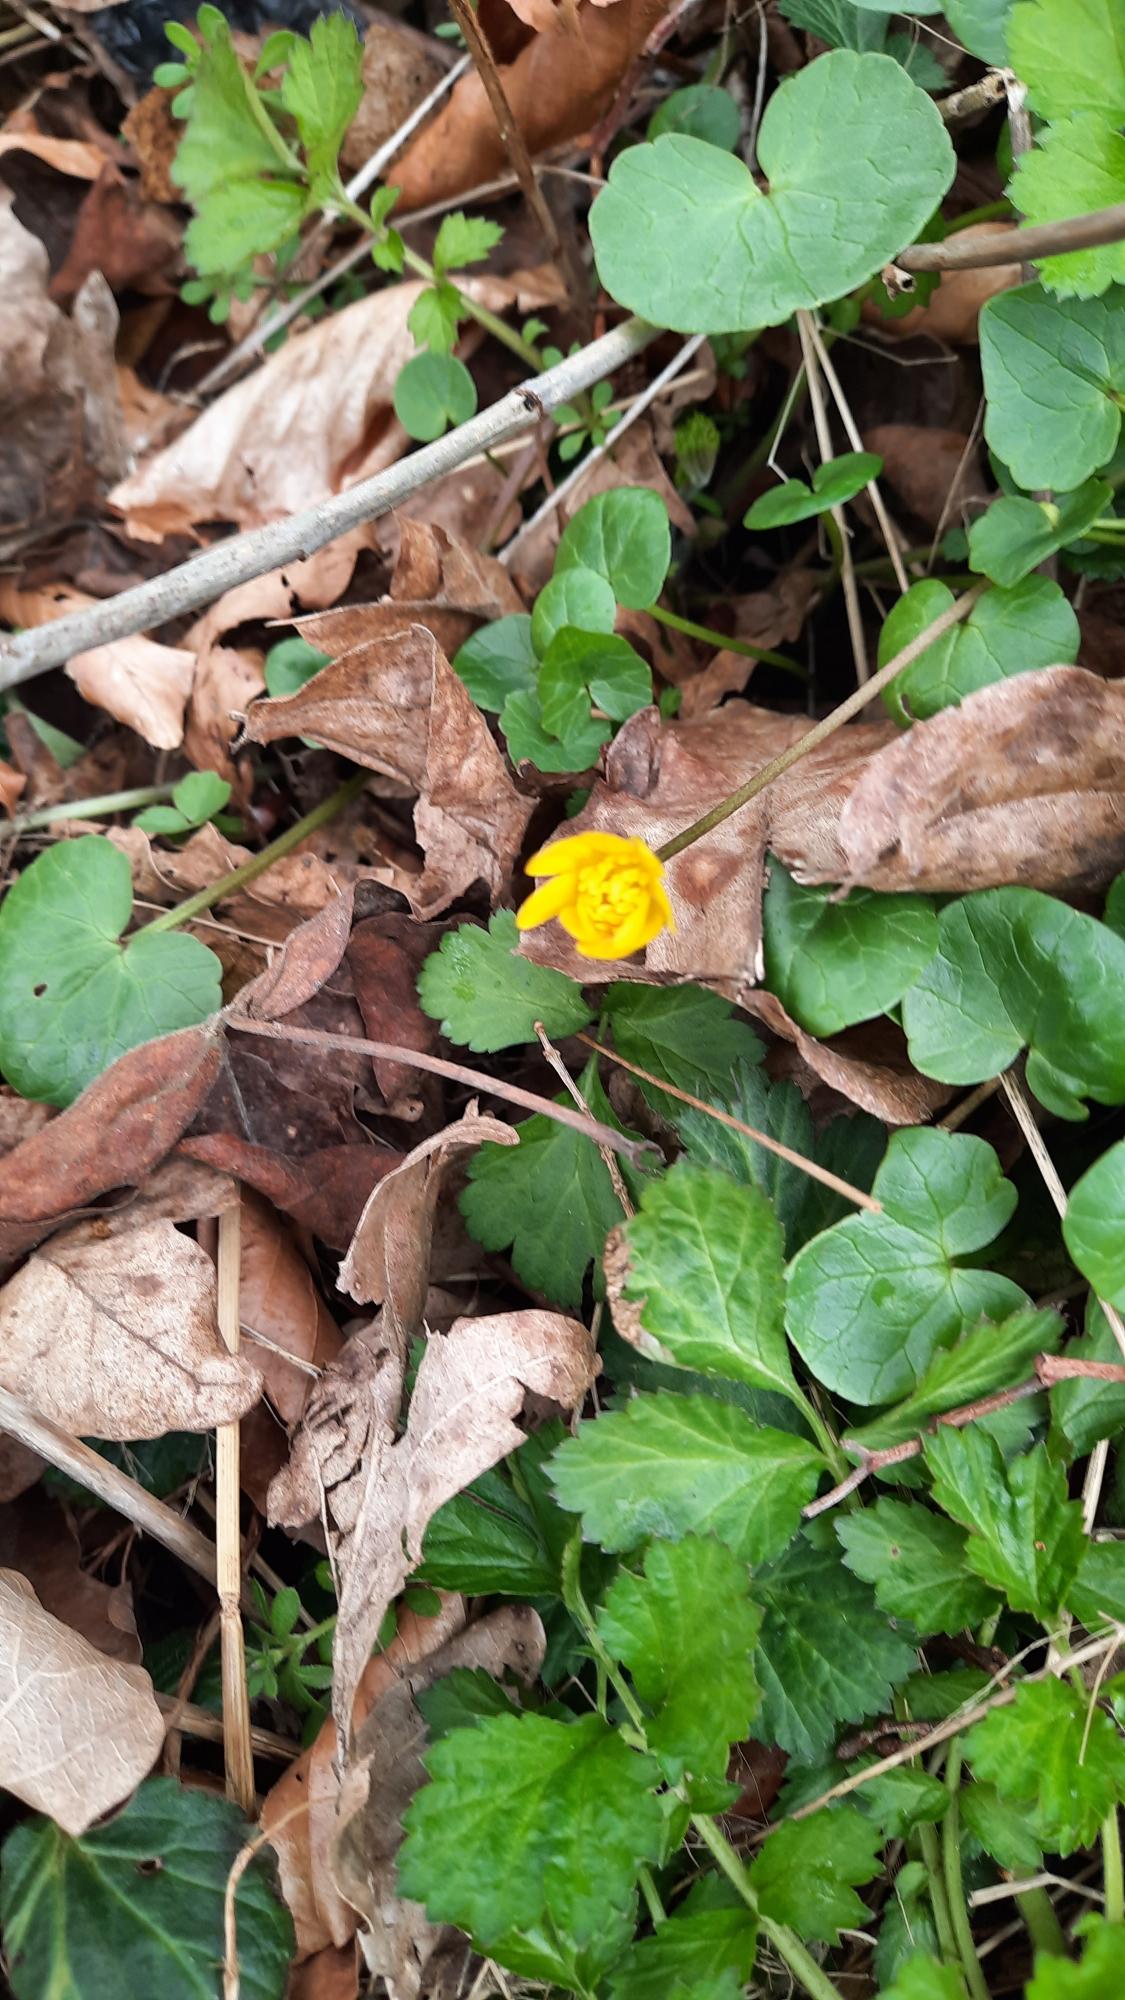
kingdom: Plantae
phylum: Tracheophyta
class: Magnoliopsida
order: Ranunculales
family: Ranunculaceae
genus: Ficaria
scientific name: Ficaria verna
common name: Vorterod
